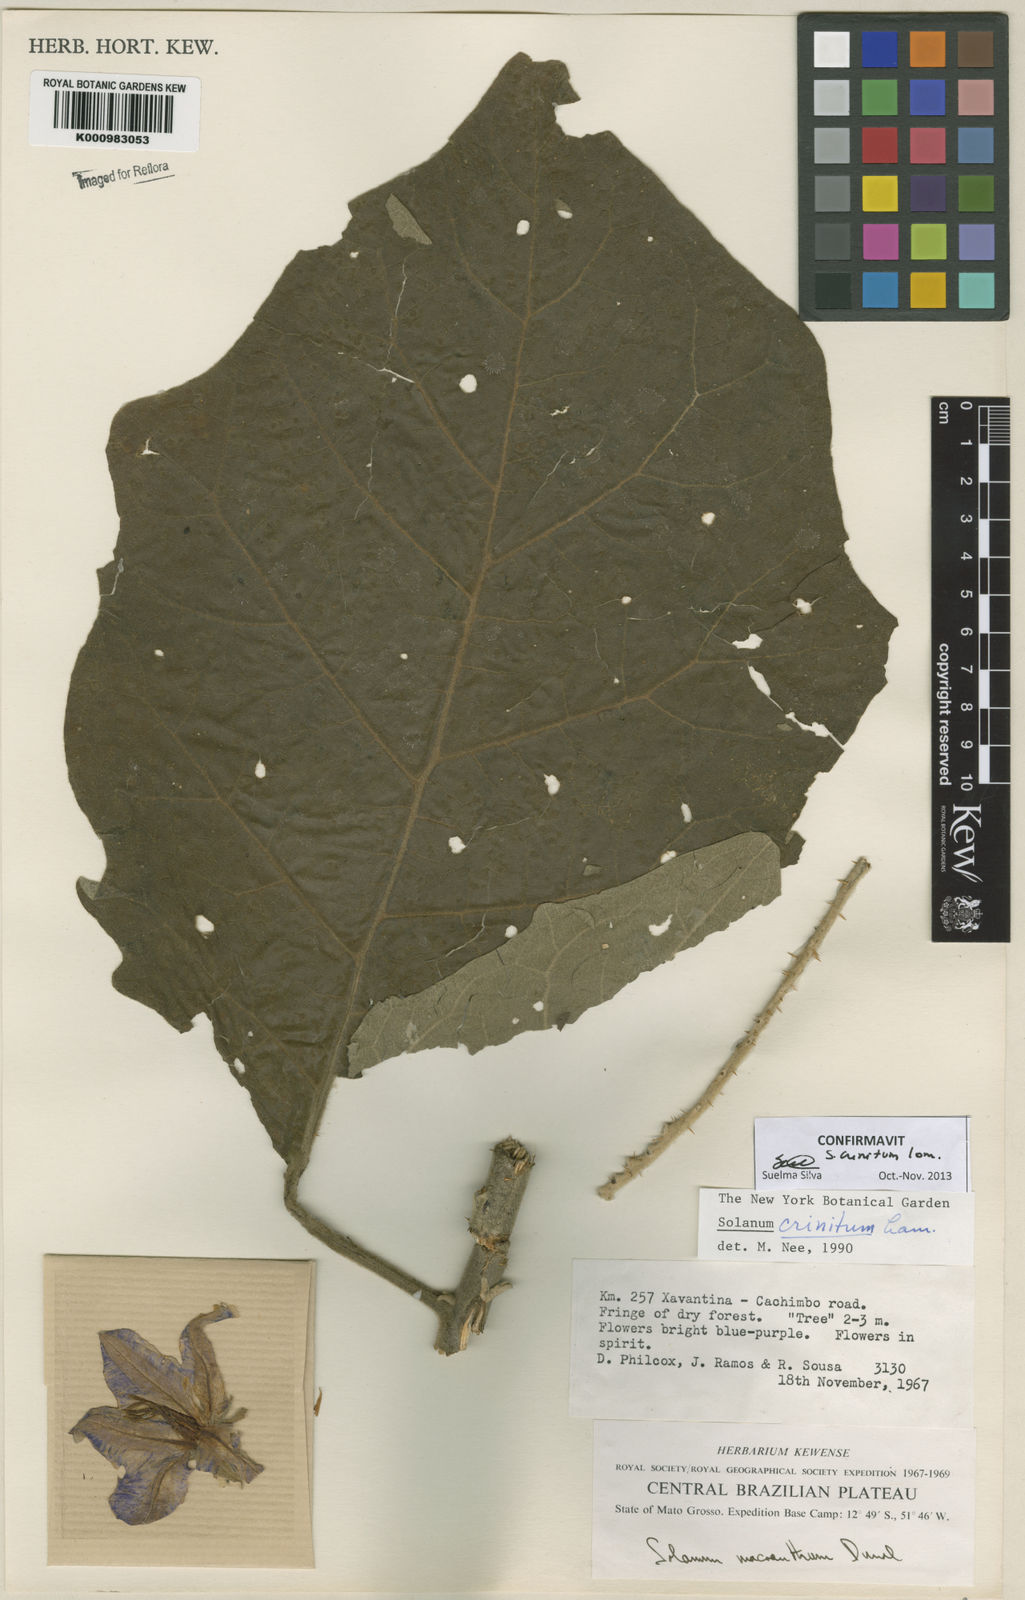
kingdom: Plantae
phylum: Tracheophyta
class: Magnoliopsida
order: Solanales
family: Solanaceae
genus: Solanum
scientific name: Solanum crinitum
